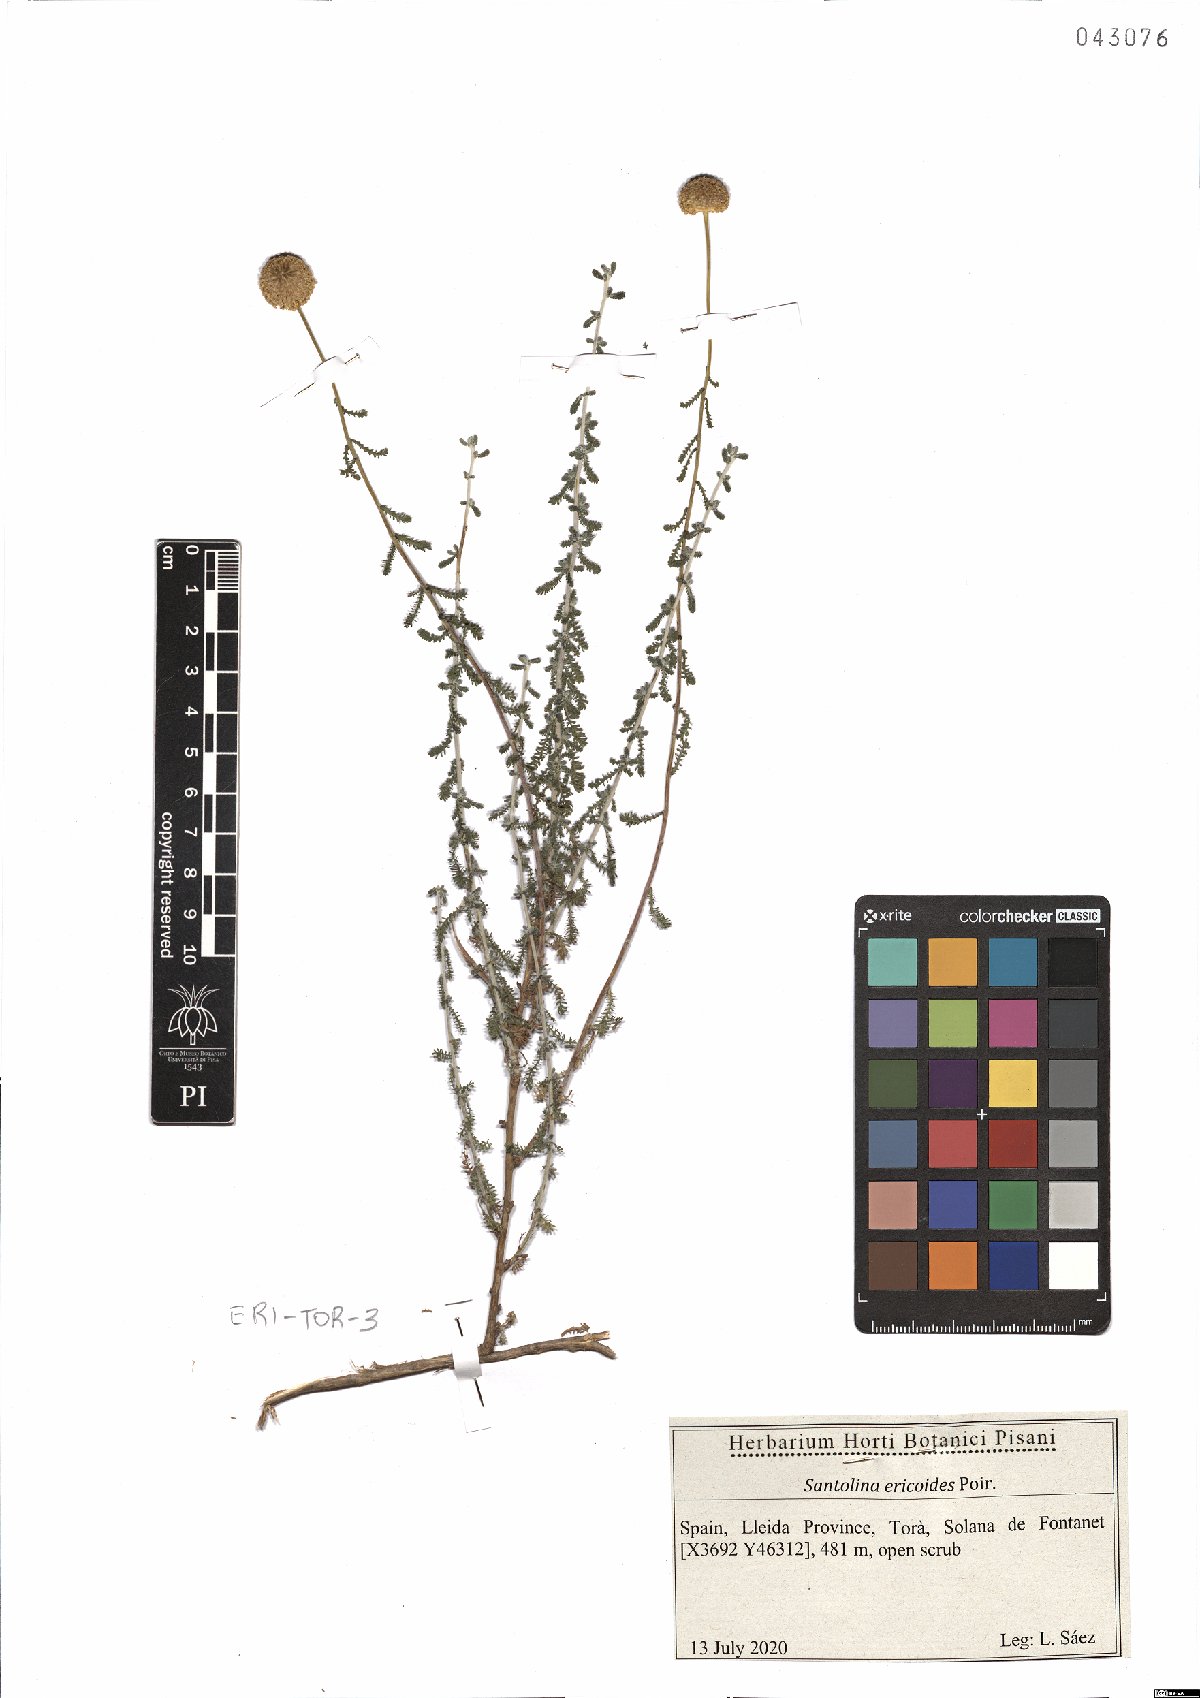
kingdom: Plantae
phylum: Tracheophyta
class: Magnoliopsida
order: Asterales
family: Asteraceae
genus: Santolina
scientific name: Santolina ericoides
